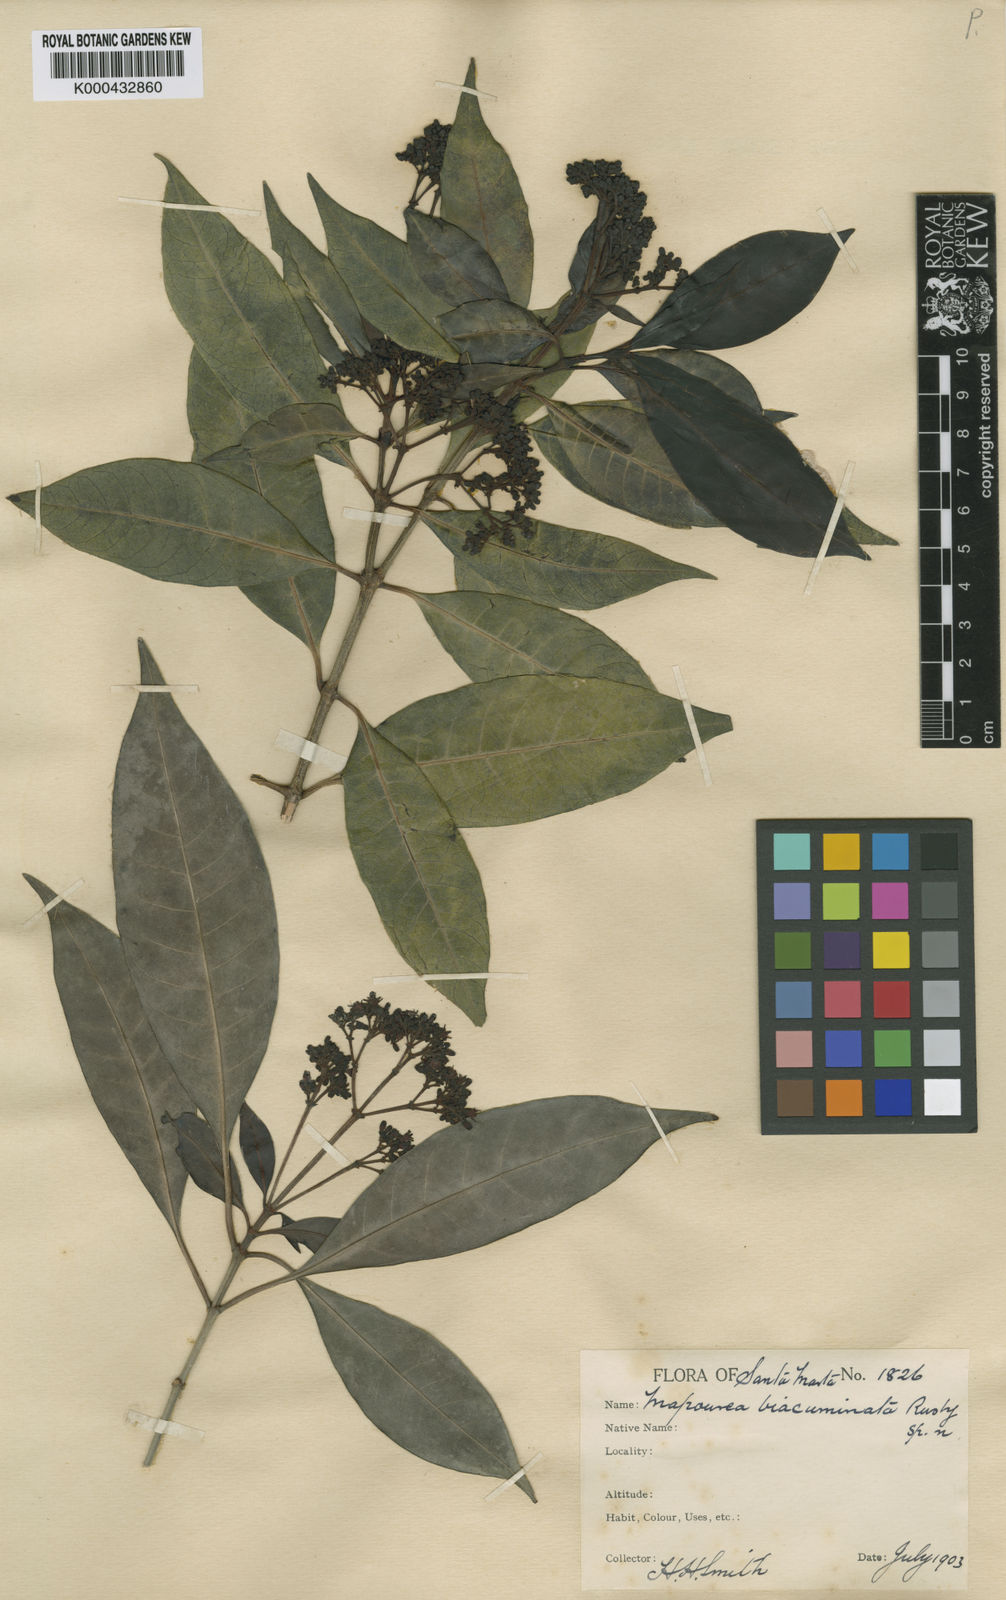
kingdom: Plantae
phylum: Tracheophyta
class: Magnoliopsida
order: Gentianales
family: Rubiaceae
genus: Psychotria
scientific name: Psychotria anceps
